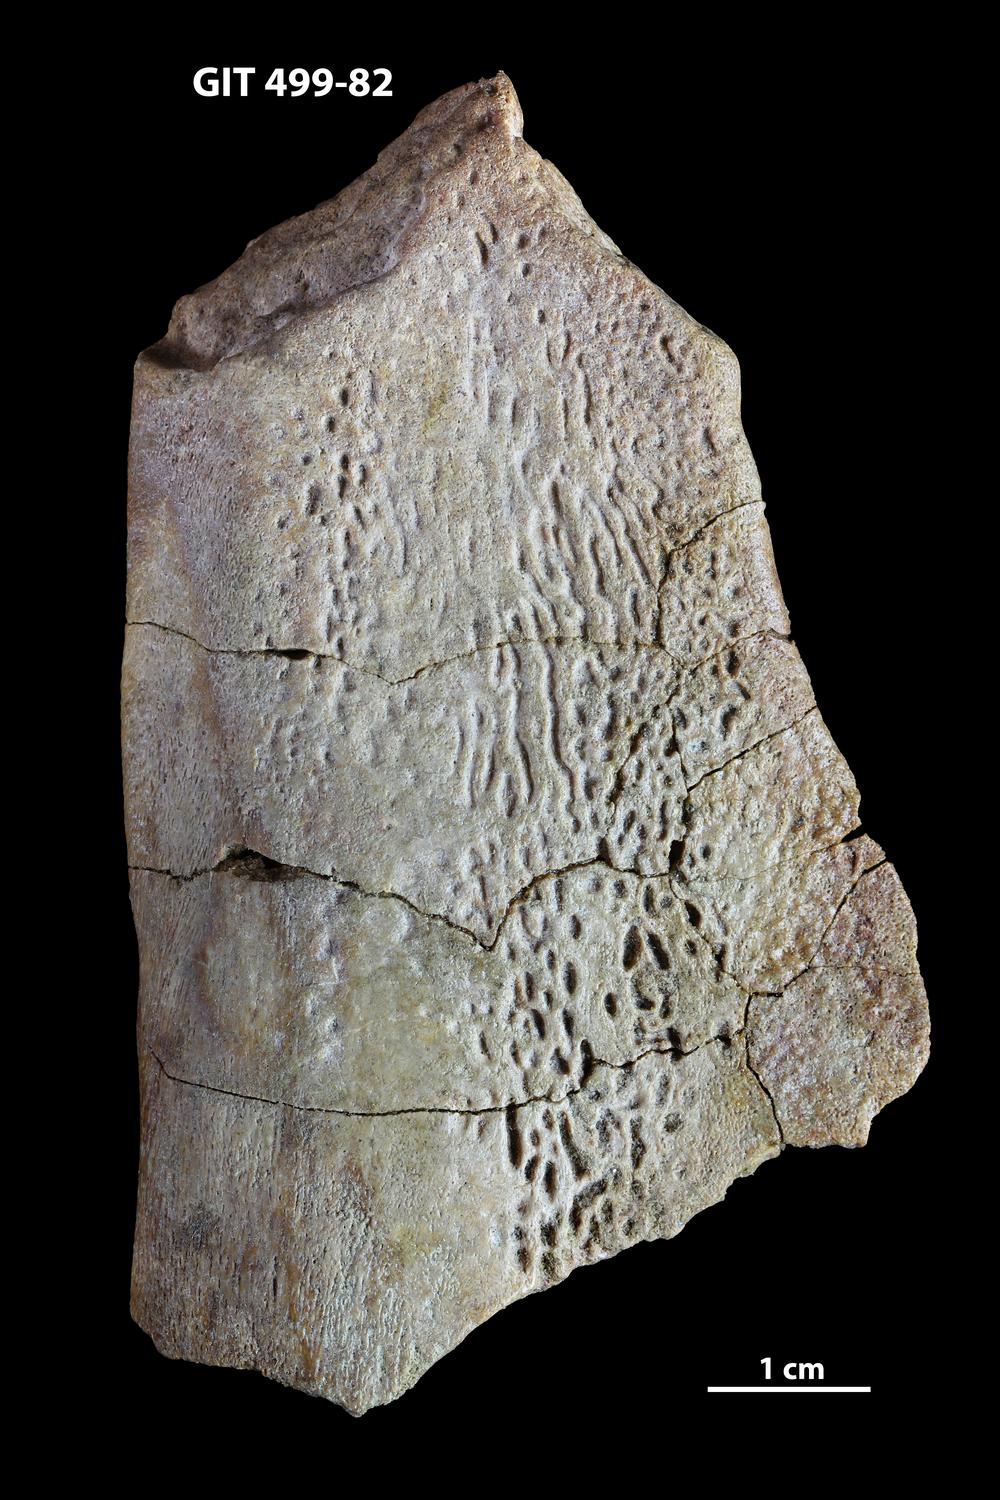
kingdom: Animalia
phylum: Chordata
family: Holoptychiidae
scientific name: Holoptychiidae
